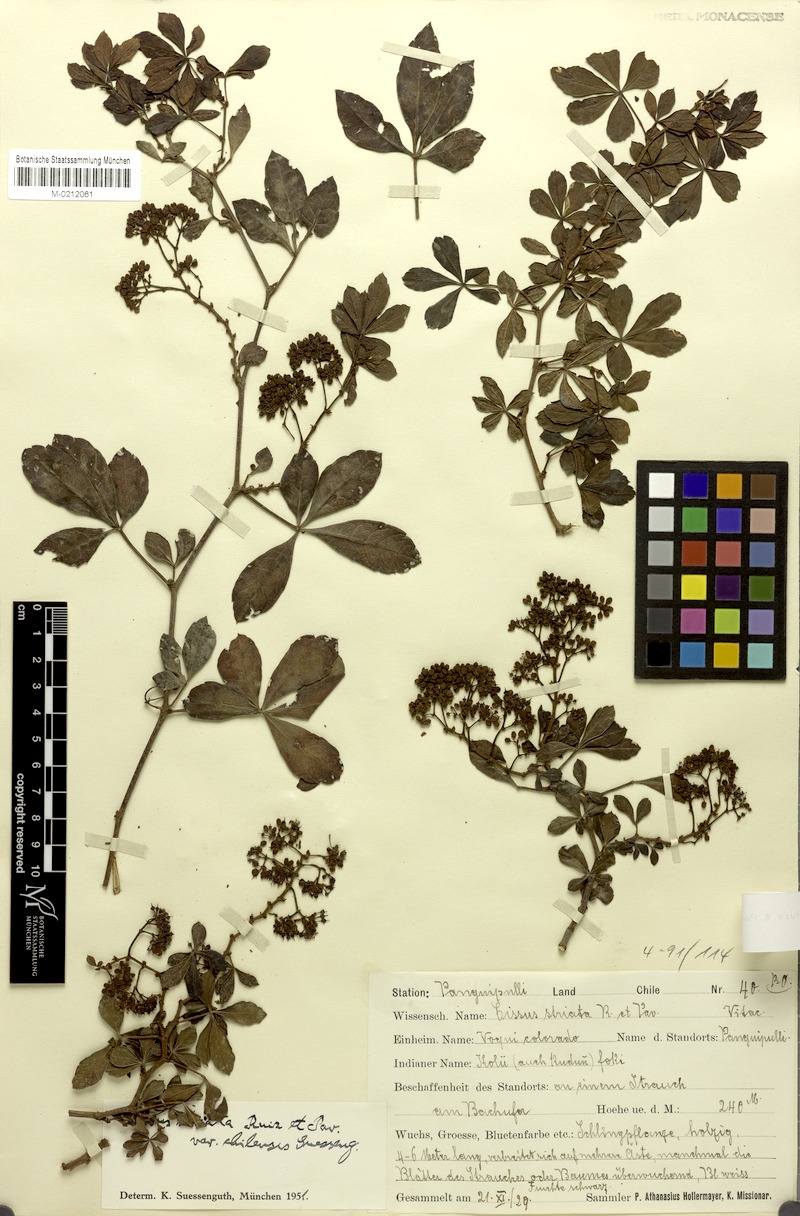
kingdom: Plantae
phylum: Tracheophyta
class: Magnoliopsida
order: Vitales
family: Vitaceae
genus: Clematicissus
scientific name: Clematicissus striata
